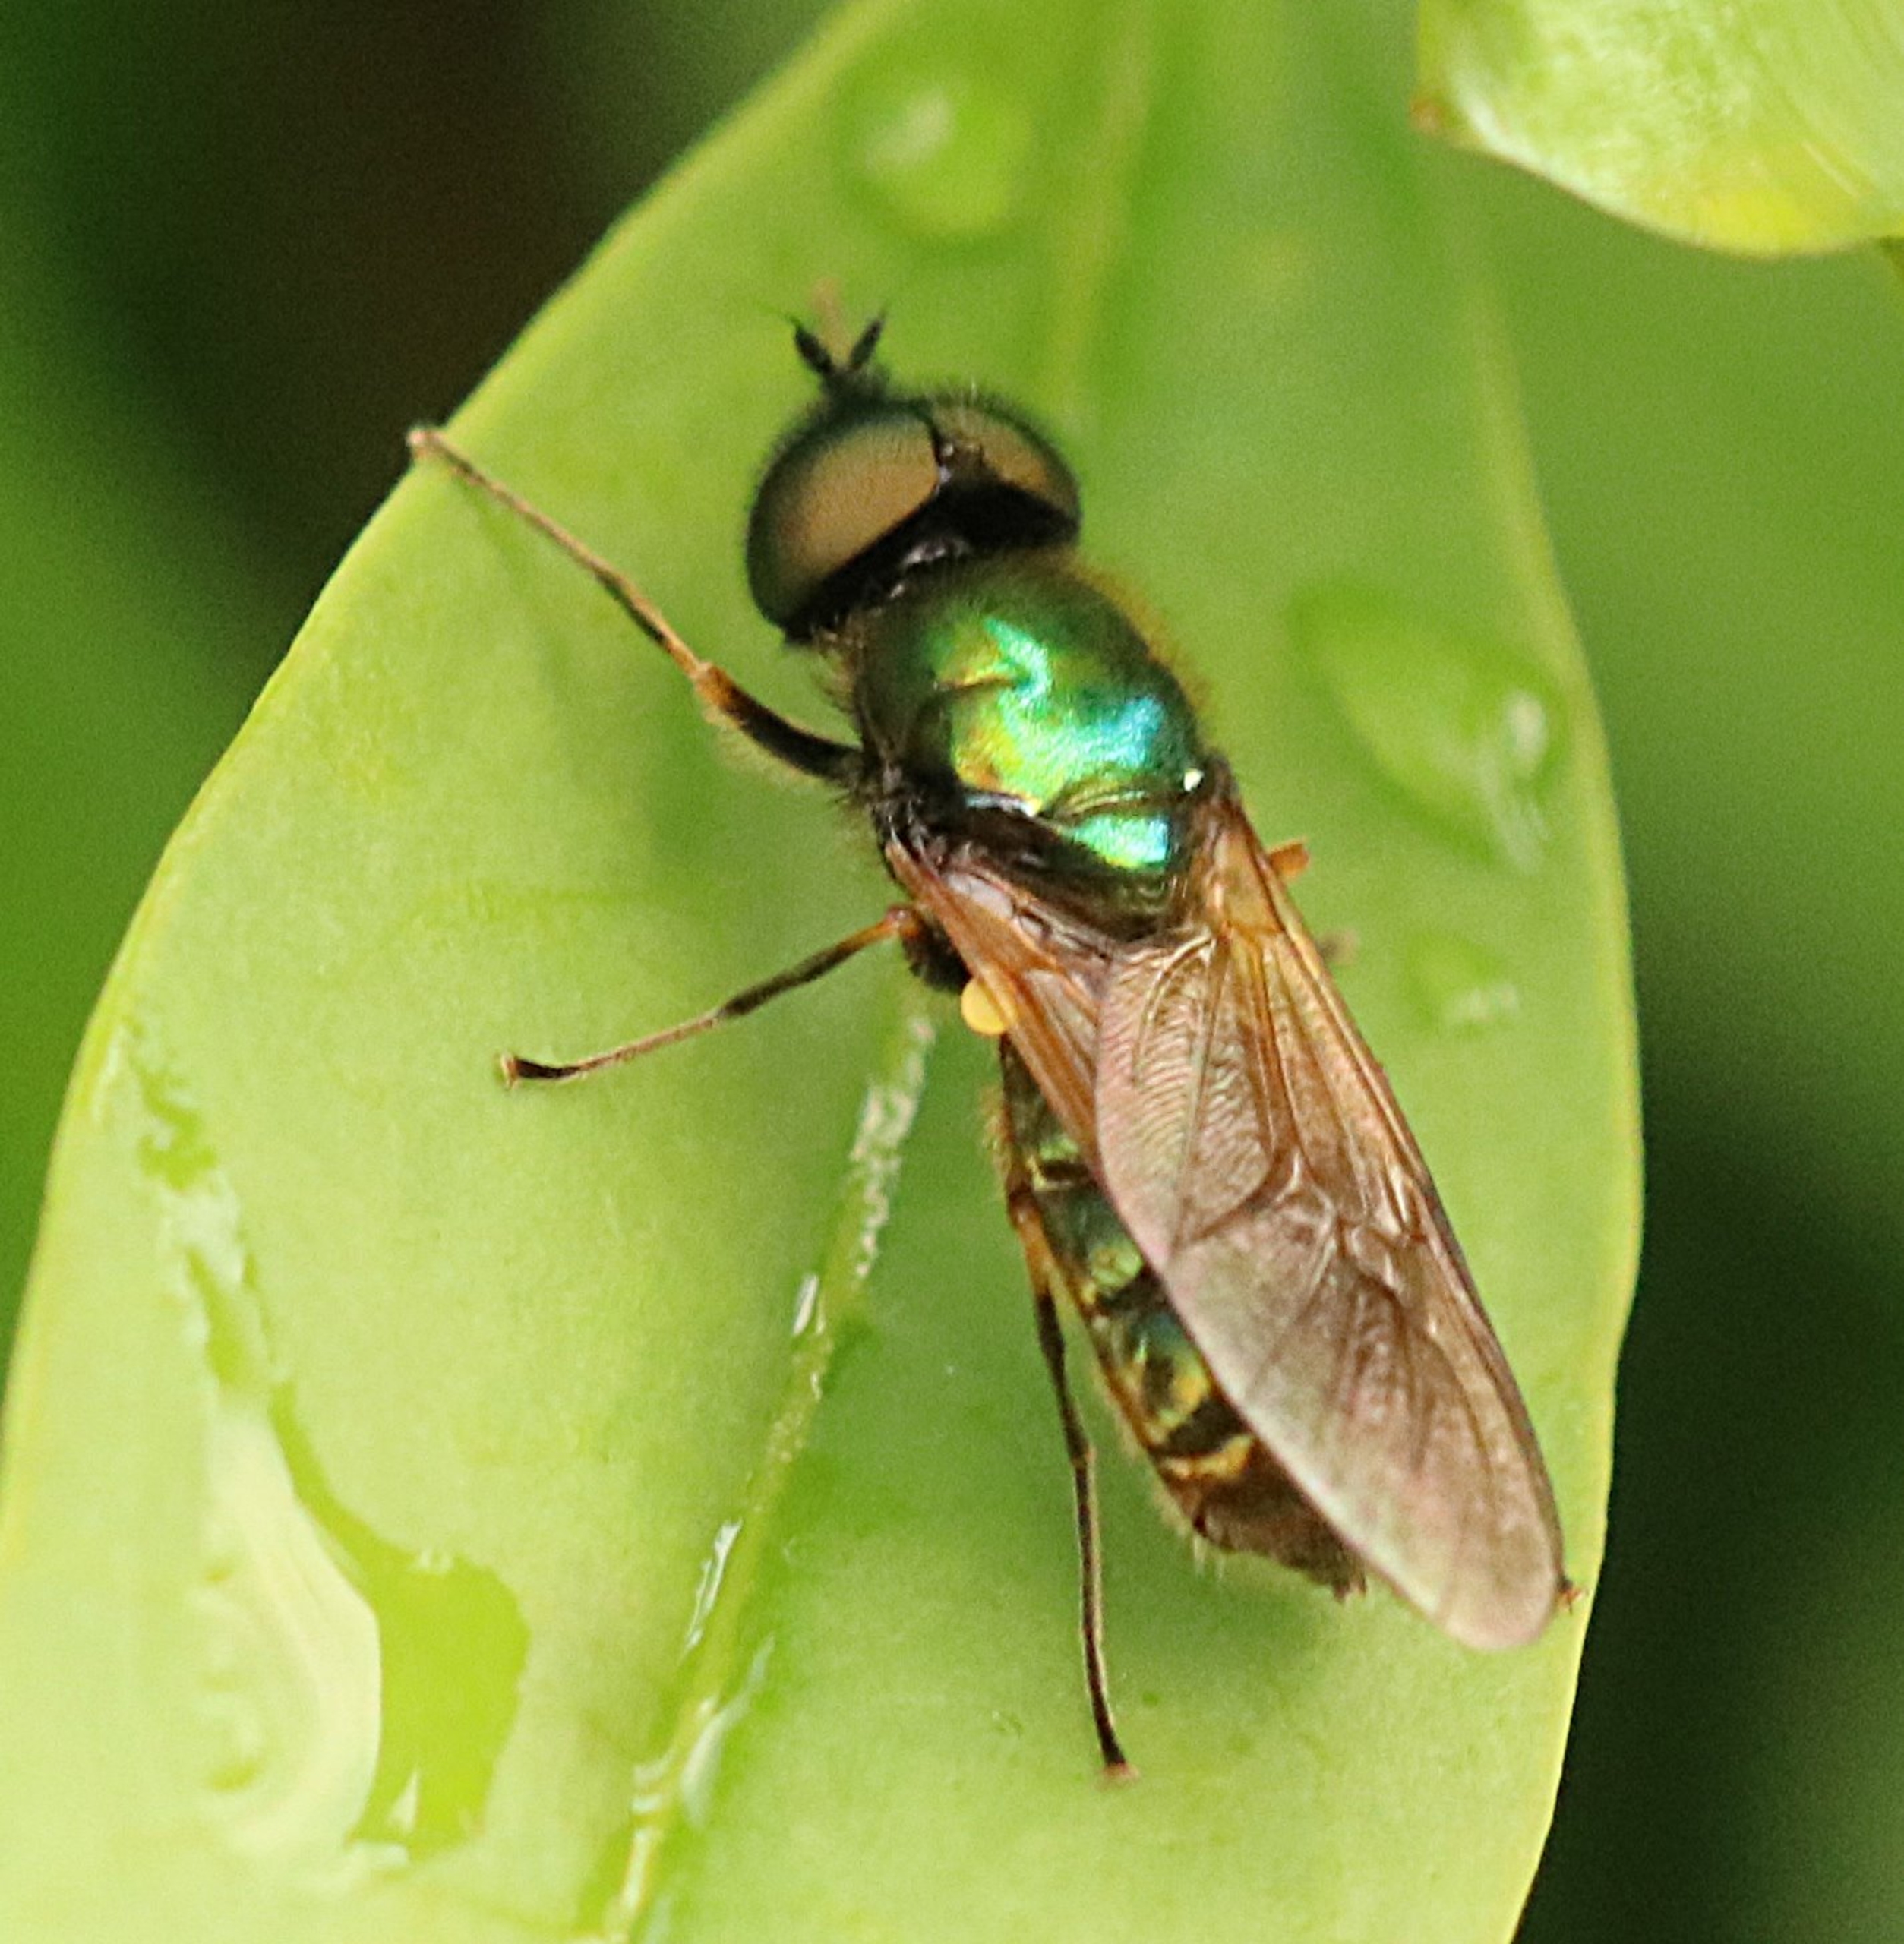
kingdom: Animalia
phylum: Arthropoda
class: Insecta
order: Diptera
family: Stratiomyidae
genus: Chloromyia
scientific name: Chloromyia formosa
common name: Grøn våbenflue
